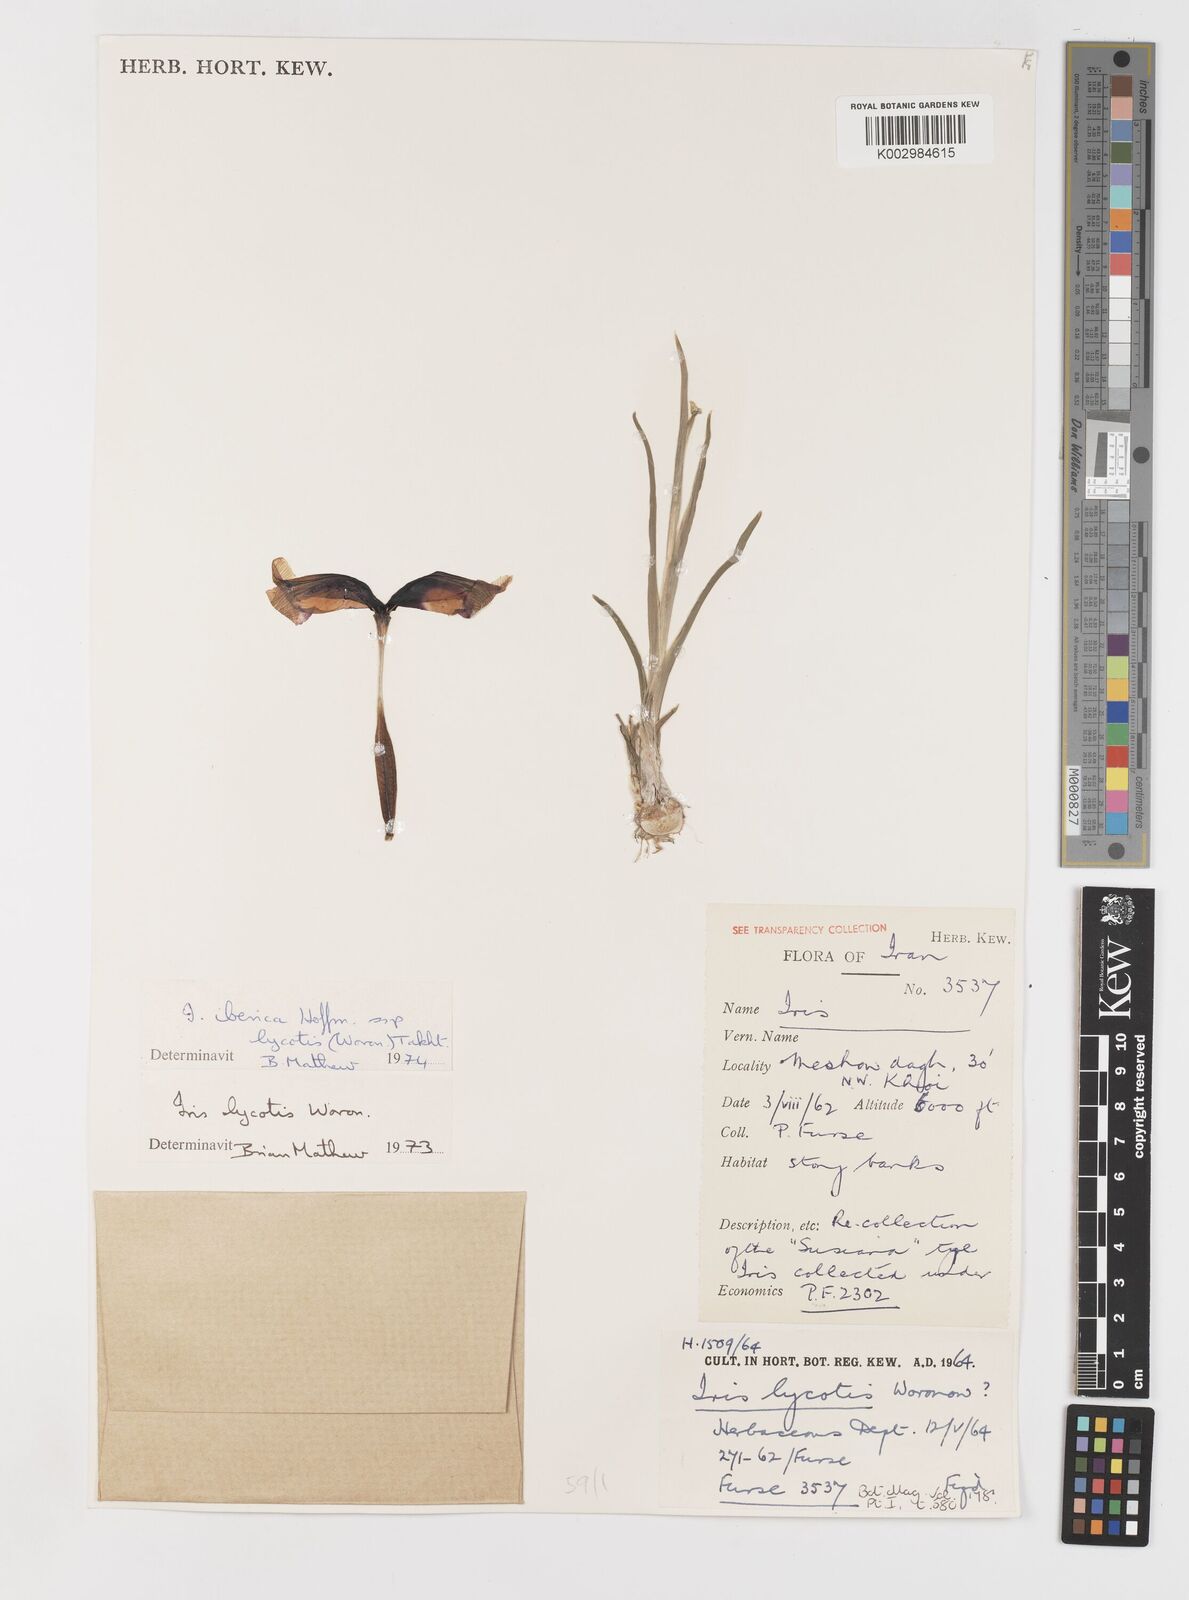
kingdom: Plantae
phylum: Tracheophyta
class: Liliopsida
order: Asparagales
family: Iridaceae
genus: Iris
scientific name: Iris lycotis
